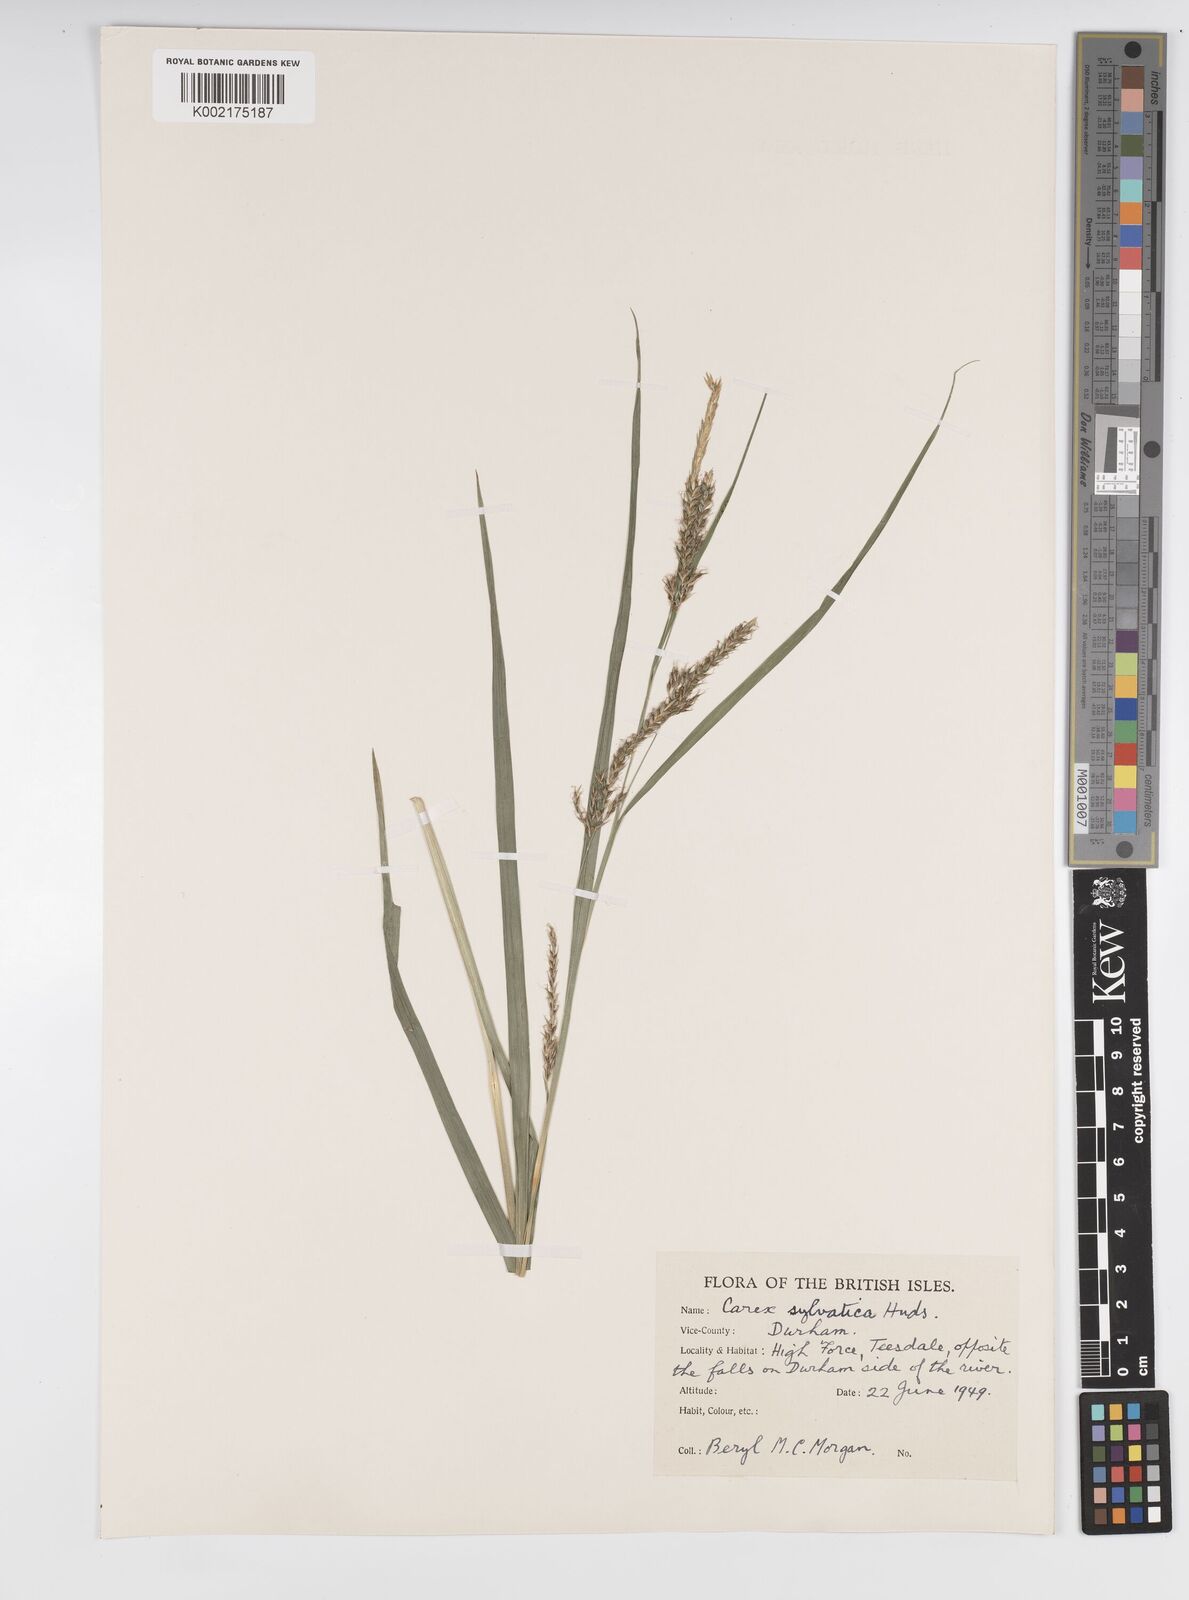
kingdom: Plantae
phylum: Tracheophyta
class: Liliopsida
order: Poales
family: Cyperaceae
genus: Carex
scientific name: Carex sylvatica
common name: Wood-sedge
